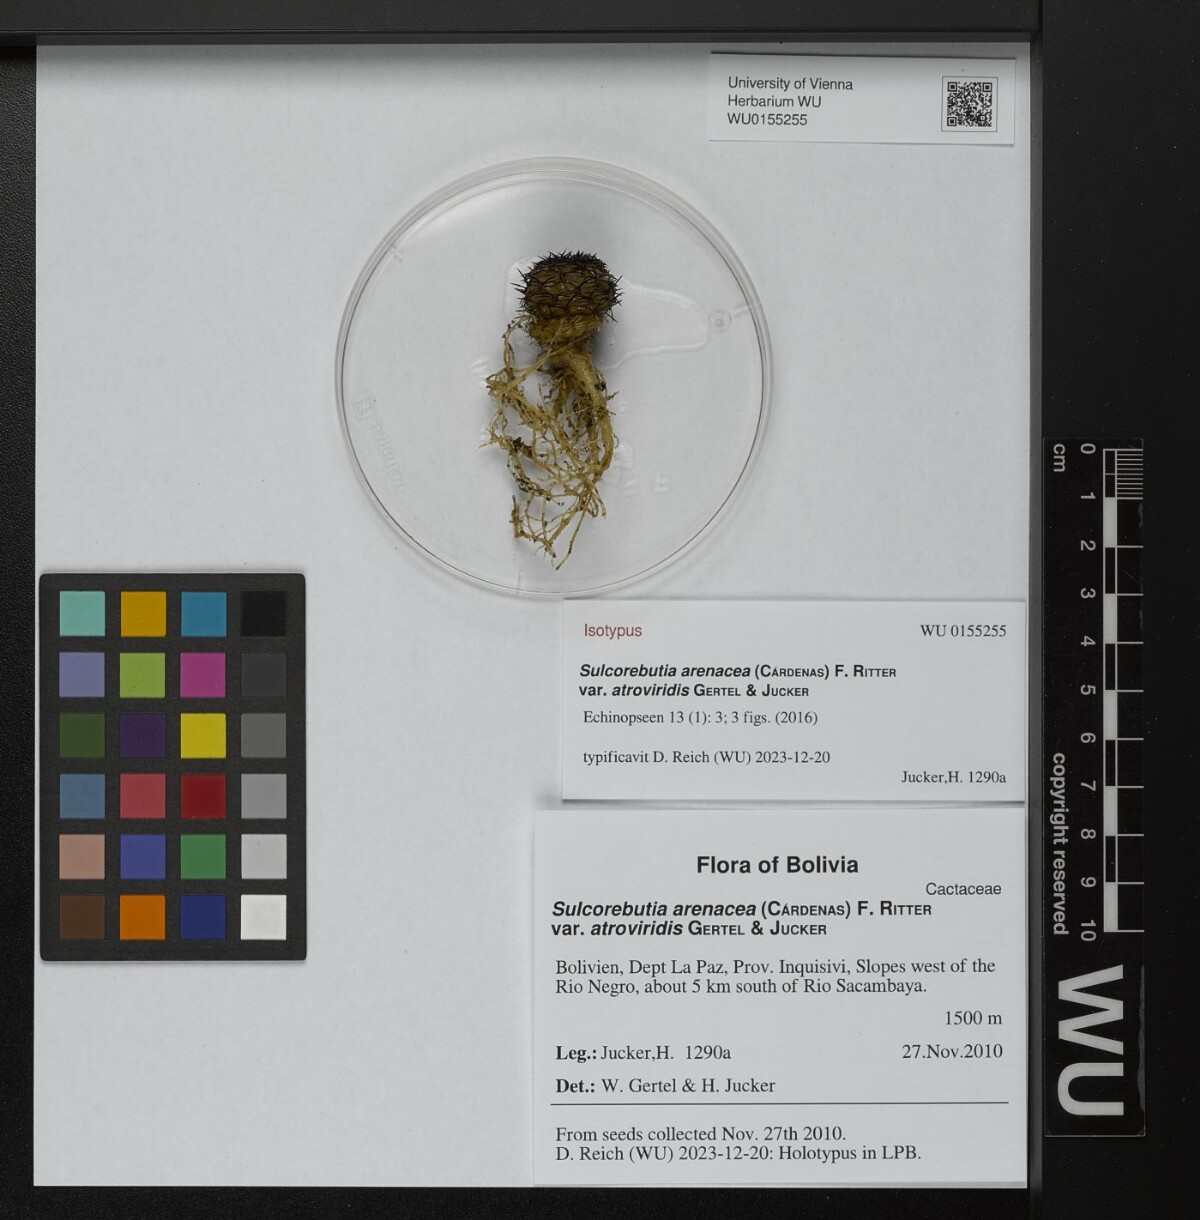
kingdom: Plantae
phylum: Tracheophyta
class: Magnoliopsida
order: Caryophyllales
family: Cactaceae
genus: Weingartia
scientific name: Weingartia arenacea
